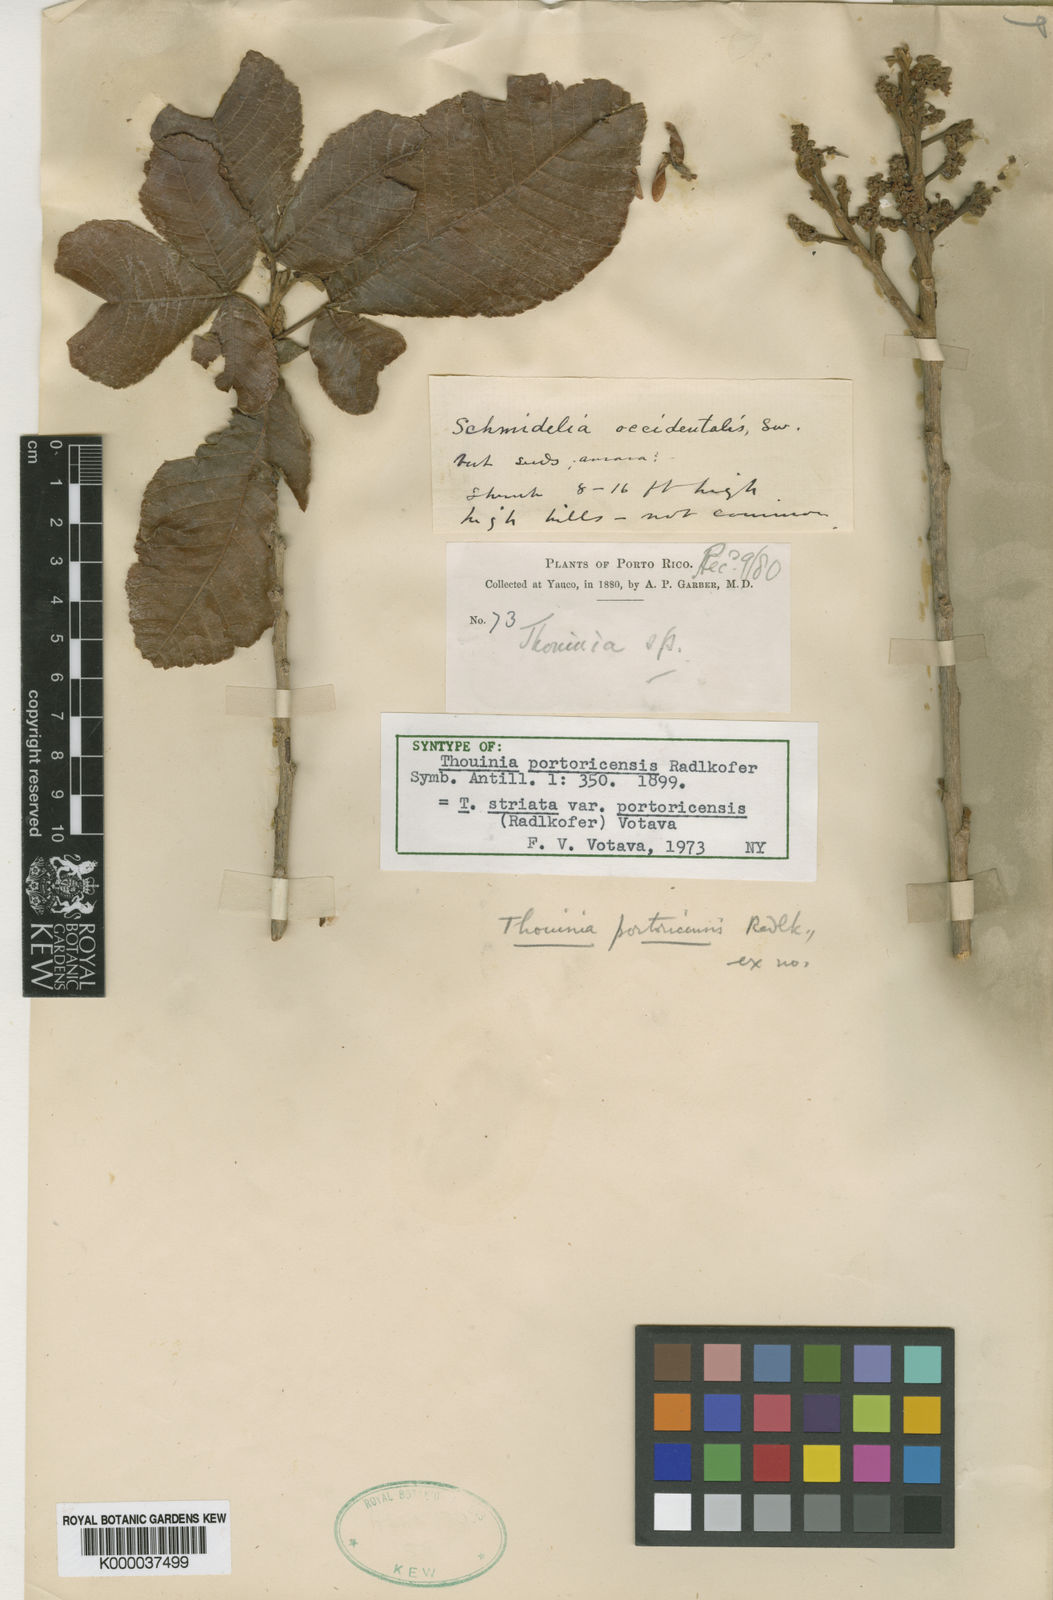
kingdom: Plantae
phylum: Tracheophyta
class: Magnoliopsida
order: Sapindales
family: Sapindaceae
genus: Thouinia
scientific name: Thouinia striata
